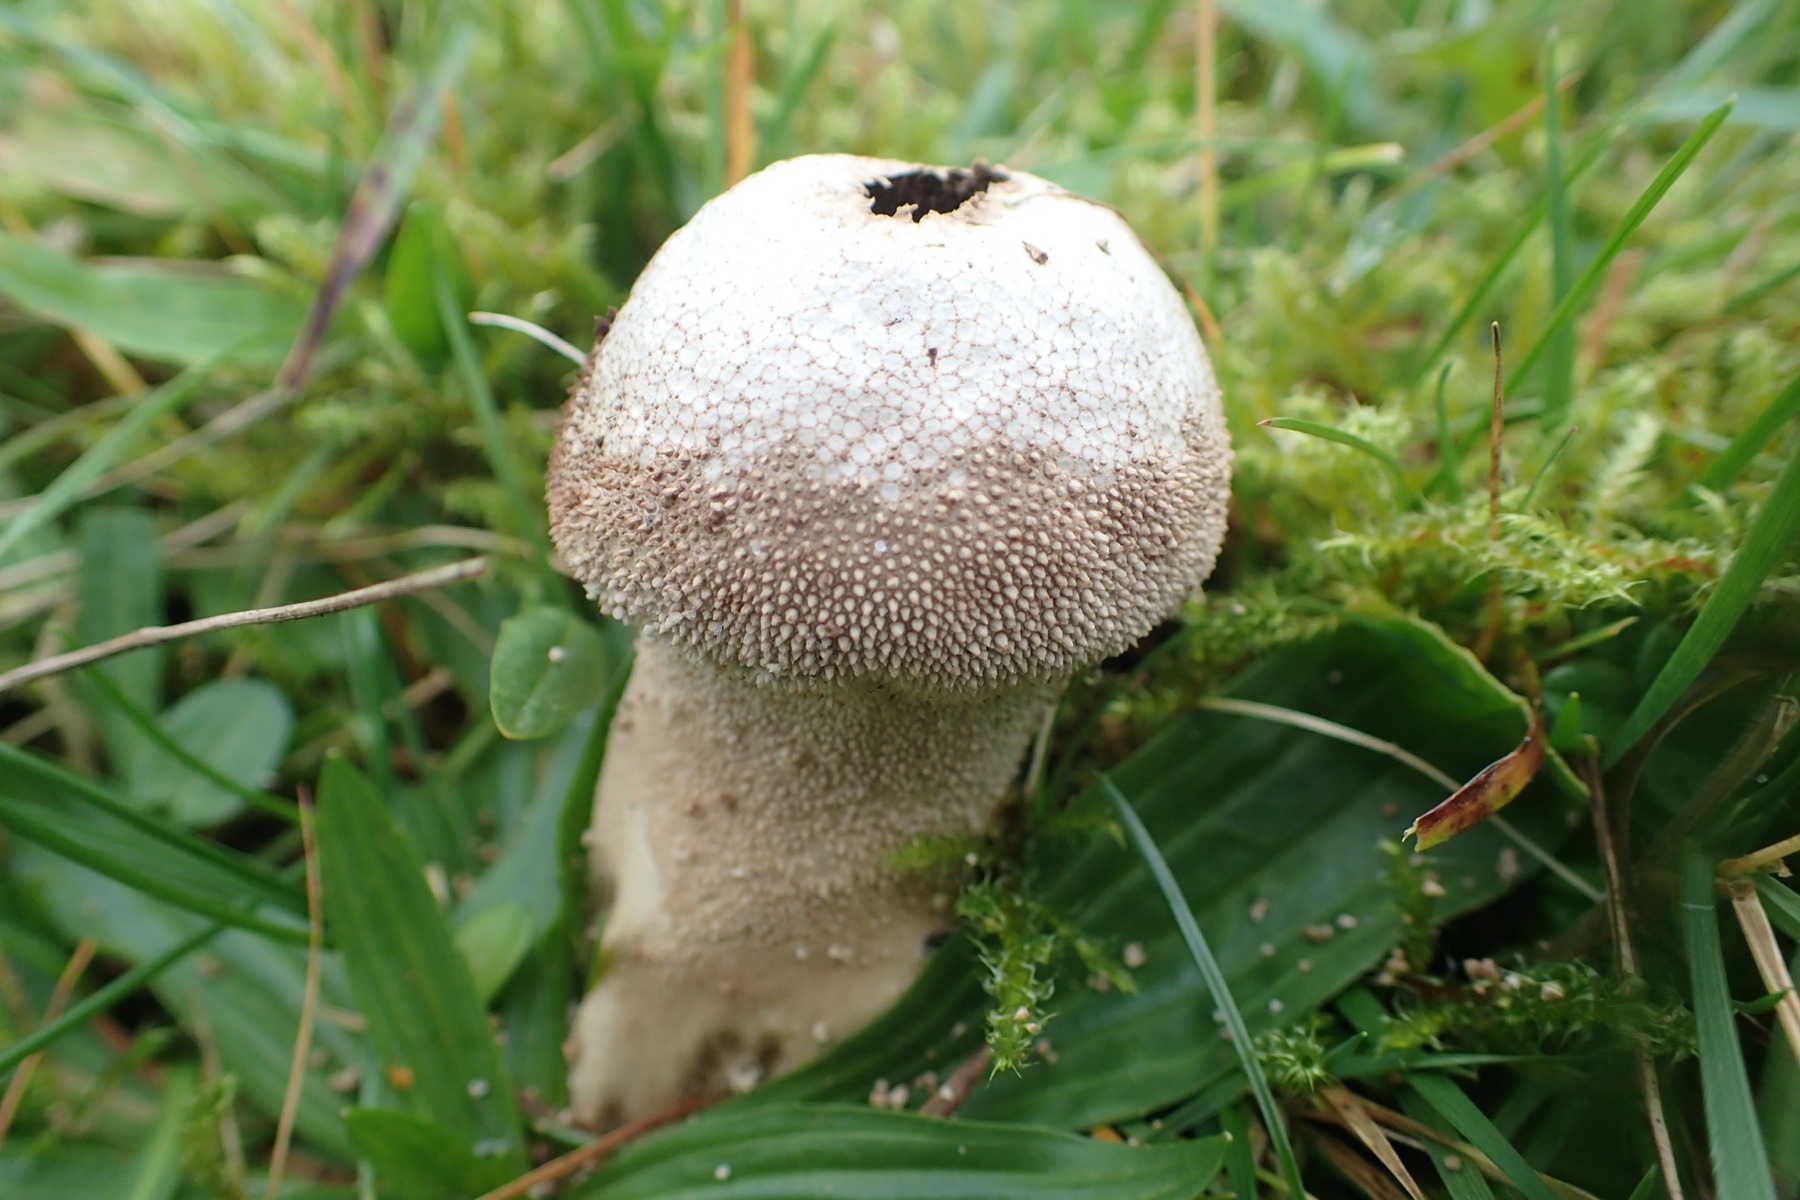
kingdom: Fungi
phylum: Basidiomycota
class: Agaricomycetes
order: Agaricales
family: Lycoperdaceae
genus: Lycoperdon
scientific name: Lycoperdon perlatum
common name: krystal-støvbold
